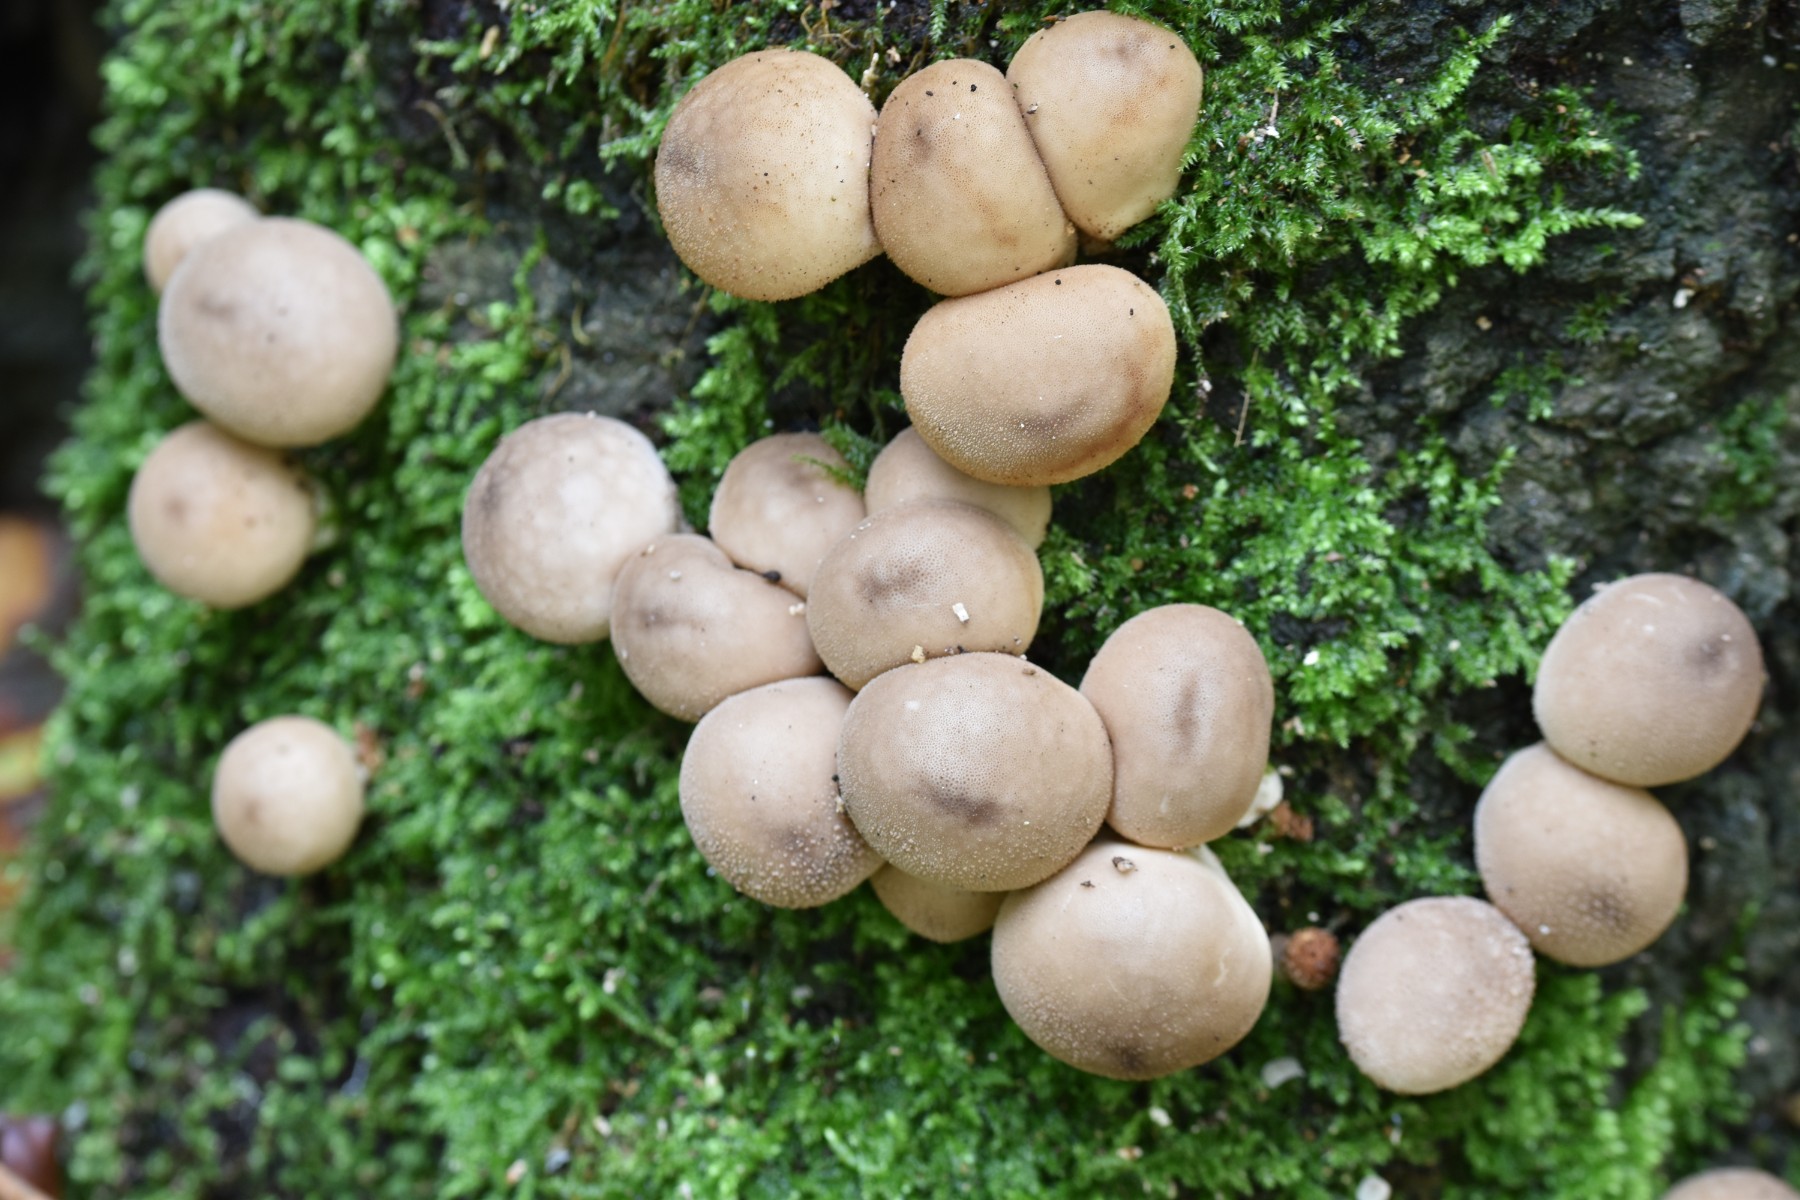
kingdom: Fungi
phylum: Basidiomycota
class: Agaricomycetes
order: Agaricales
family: Lycoperdaceae
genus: Apioperdon
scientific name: Apioperdon pyriforme
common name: pære-støvbold
